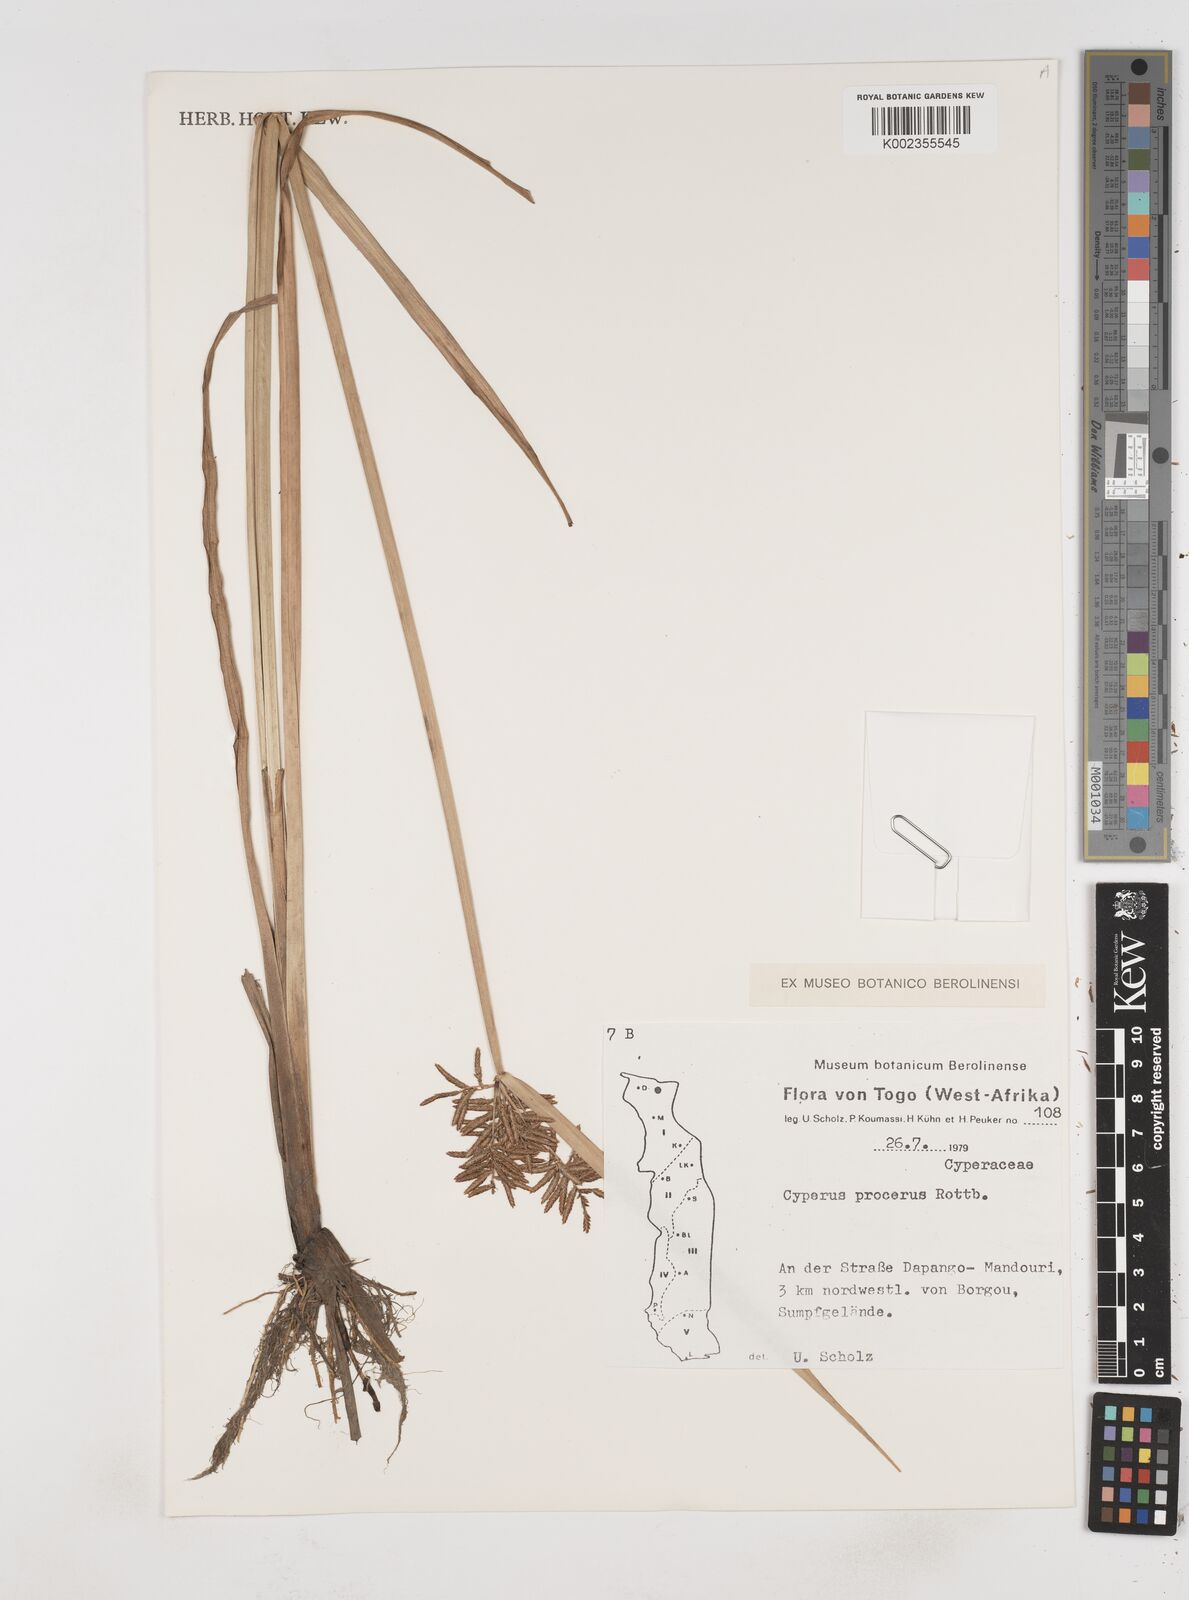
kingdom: Plantae
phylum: Tracheophyta
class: Liliopsida
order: Poales
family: Cyperaceae
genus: Cyperus
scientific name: Cyperus procerus
